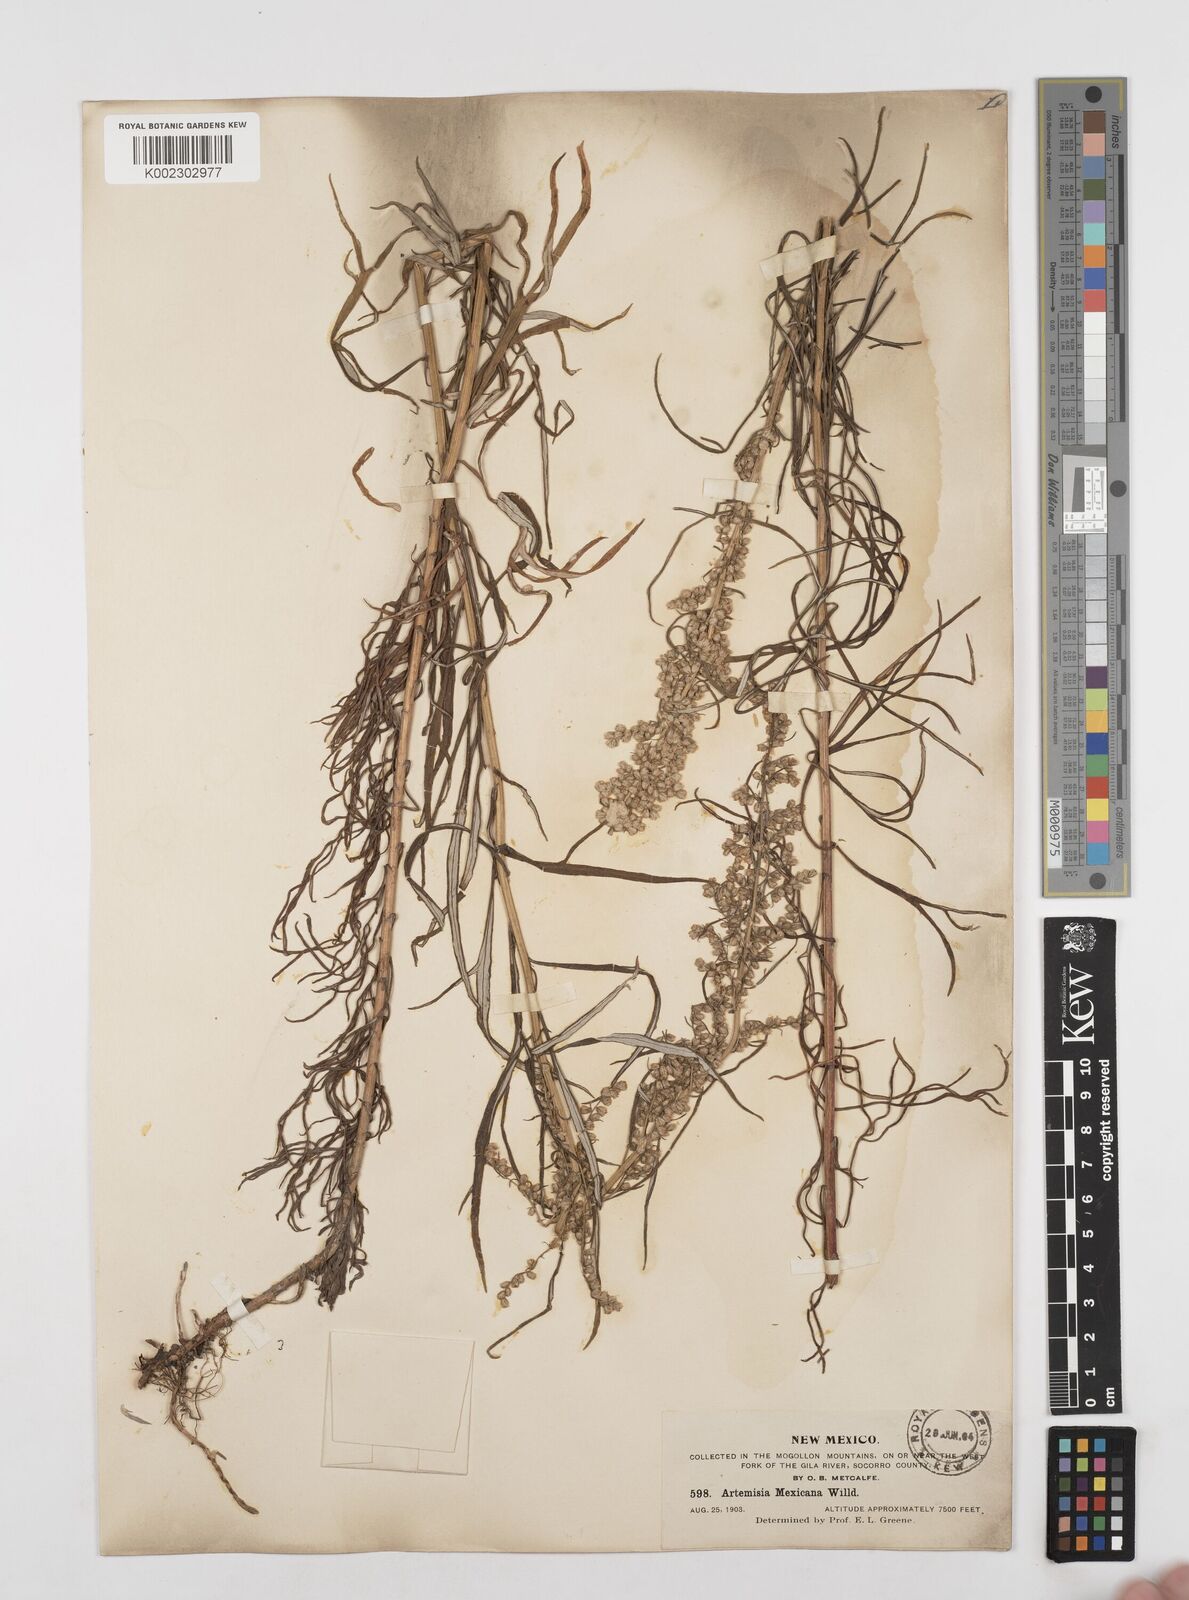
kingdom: Plantae
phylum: Tracheophyta
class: Magnoliopsida
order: Asterales
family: Asteraceae
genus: Artemisia
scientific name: Artemisia ludoviciana
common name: Western mugwort
